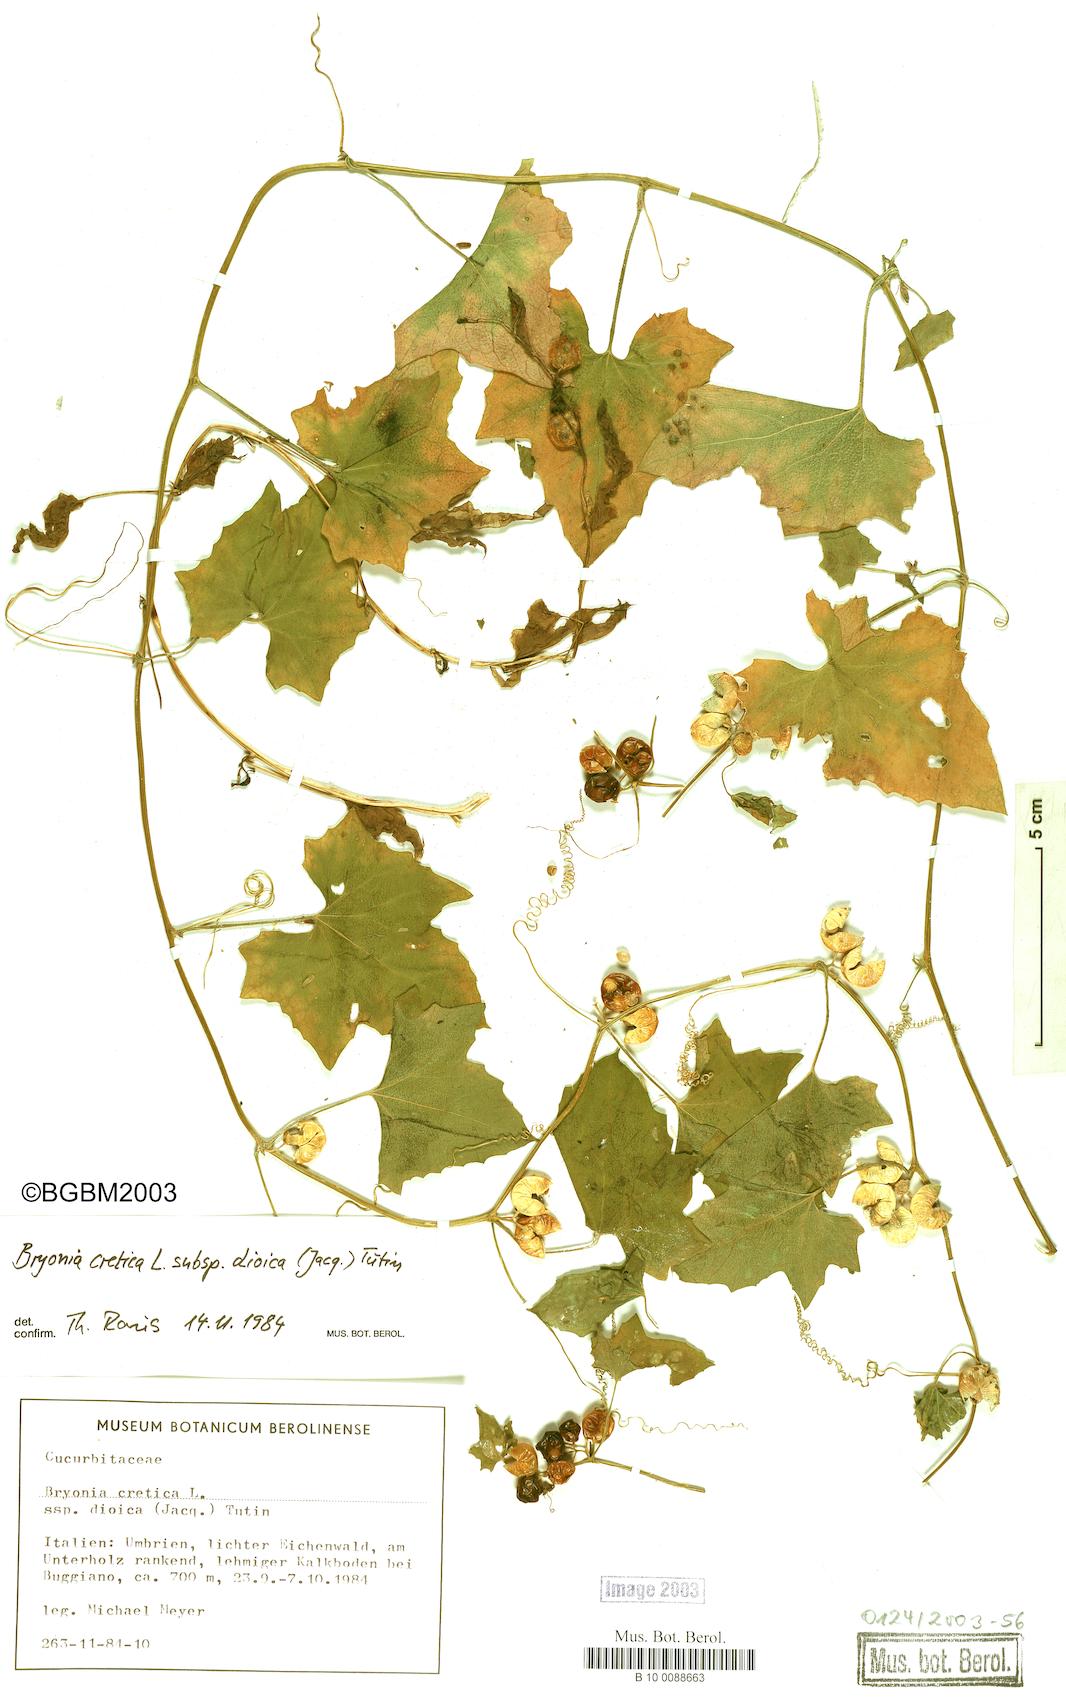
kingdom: Plantae
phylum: Tracheophyta
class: Magnoliopsida
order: Cucurbitales
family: Cucurbitaceae
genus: Bryonia
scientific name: Bryonia dioica
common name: White bryony
